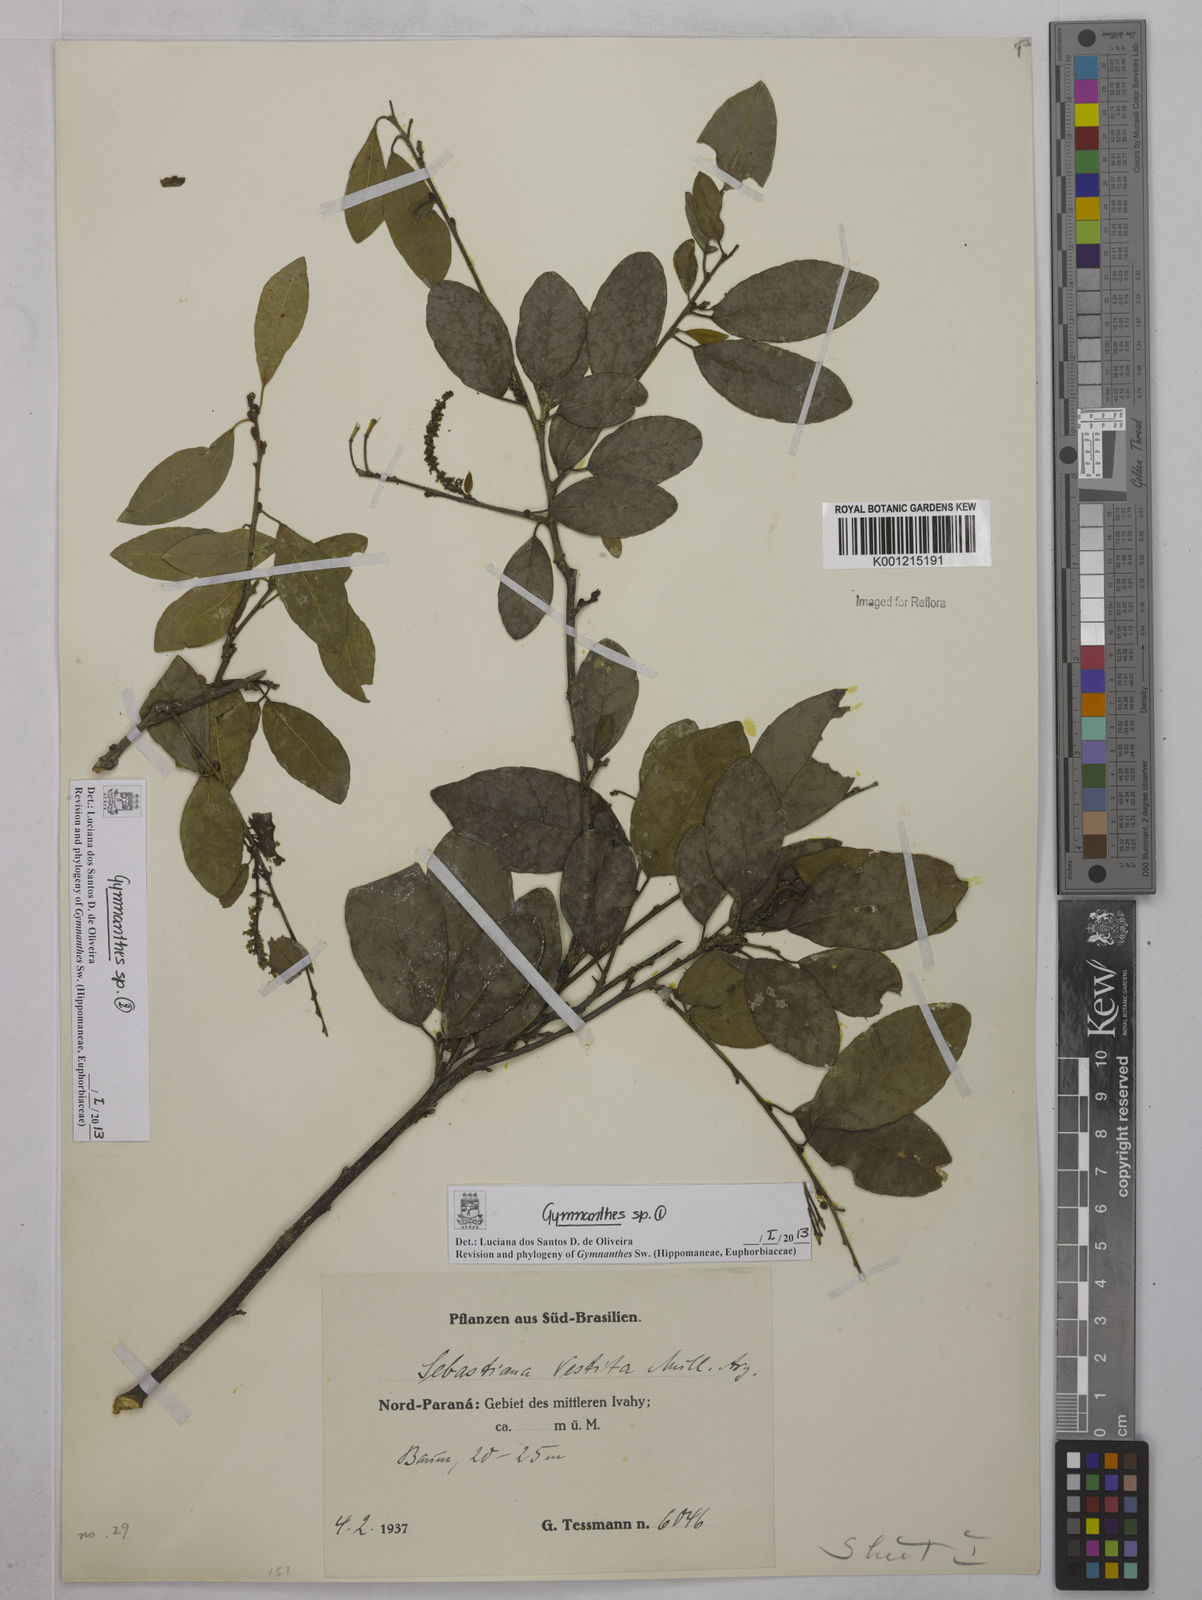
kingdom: Plantae
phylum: Tracheophyta
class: Magnoliopsida
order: Malpighiales
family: Euphorbiaceae
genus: Gymnanthes
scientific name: Gymnanthes
